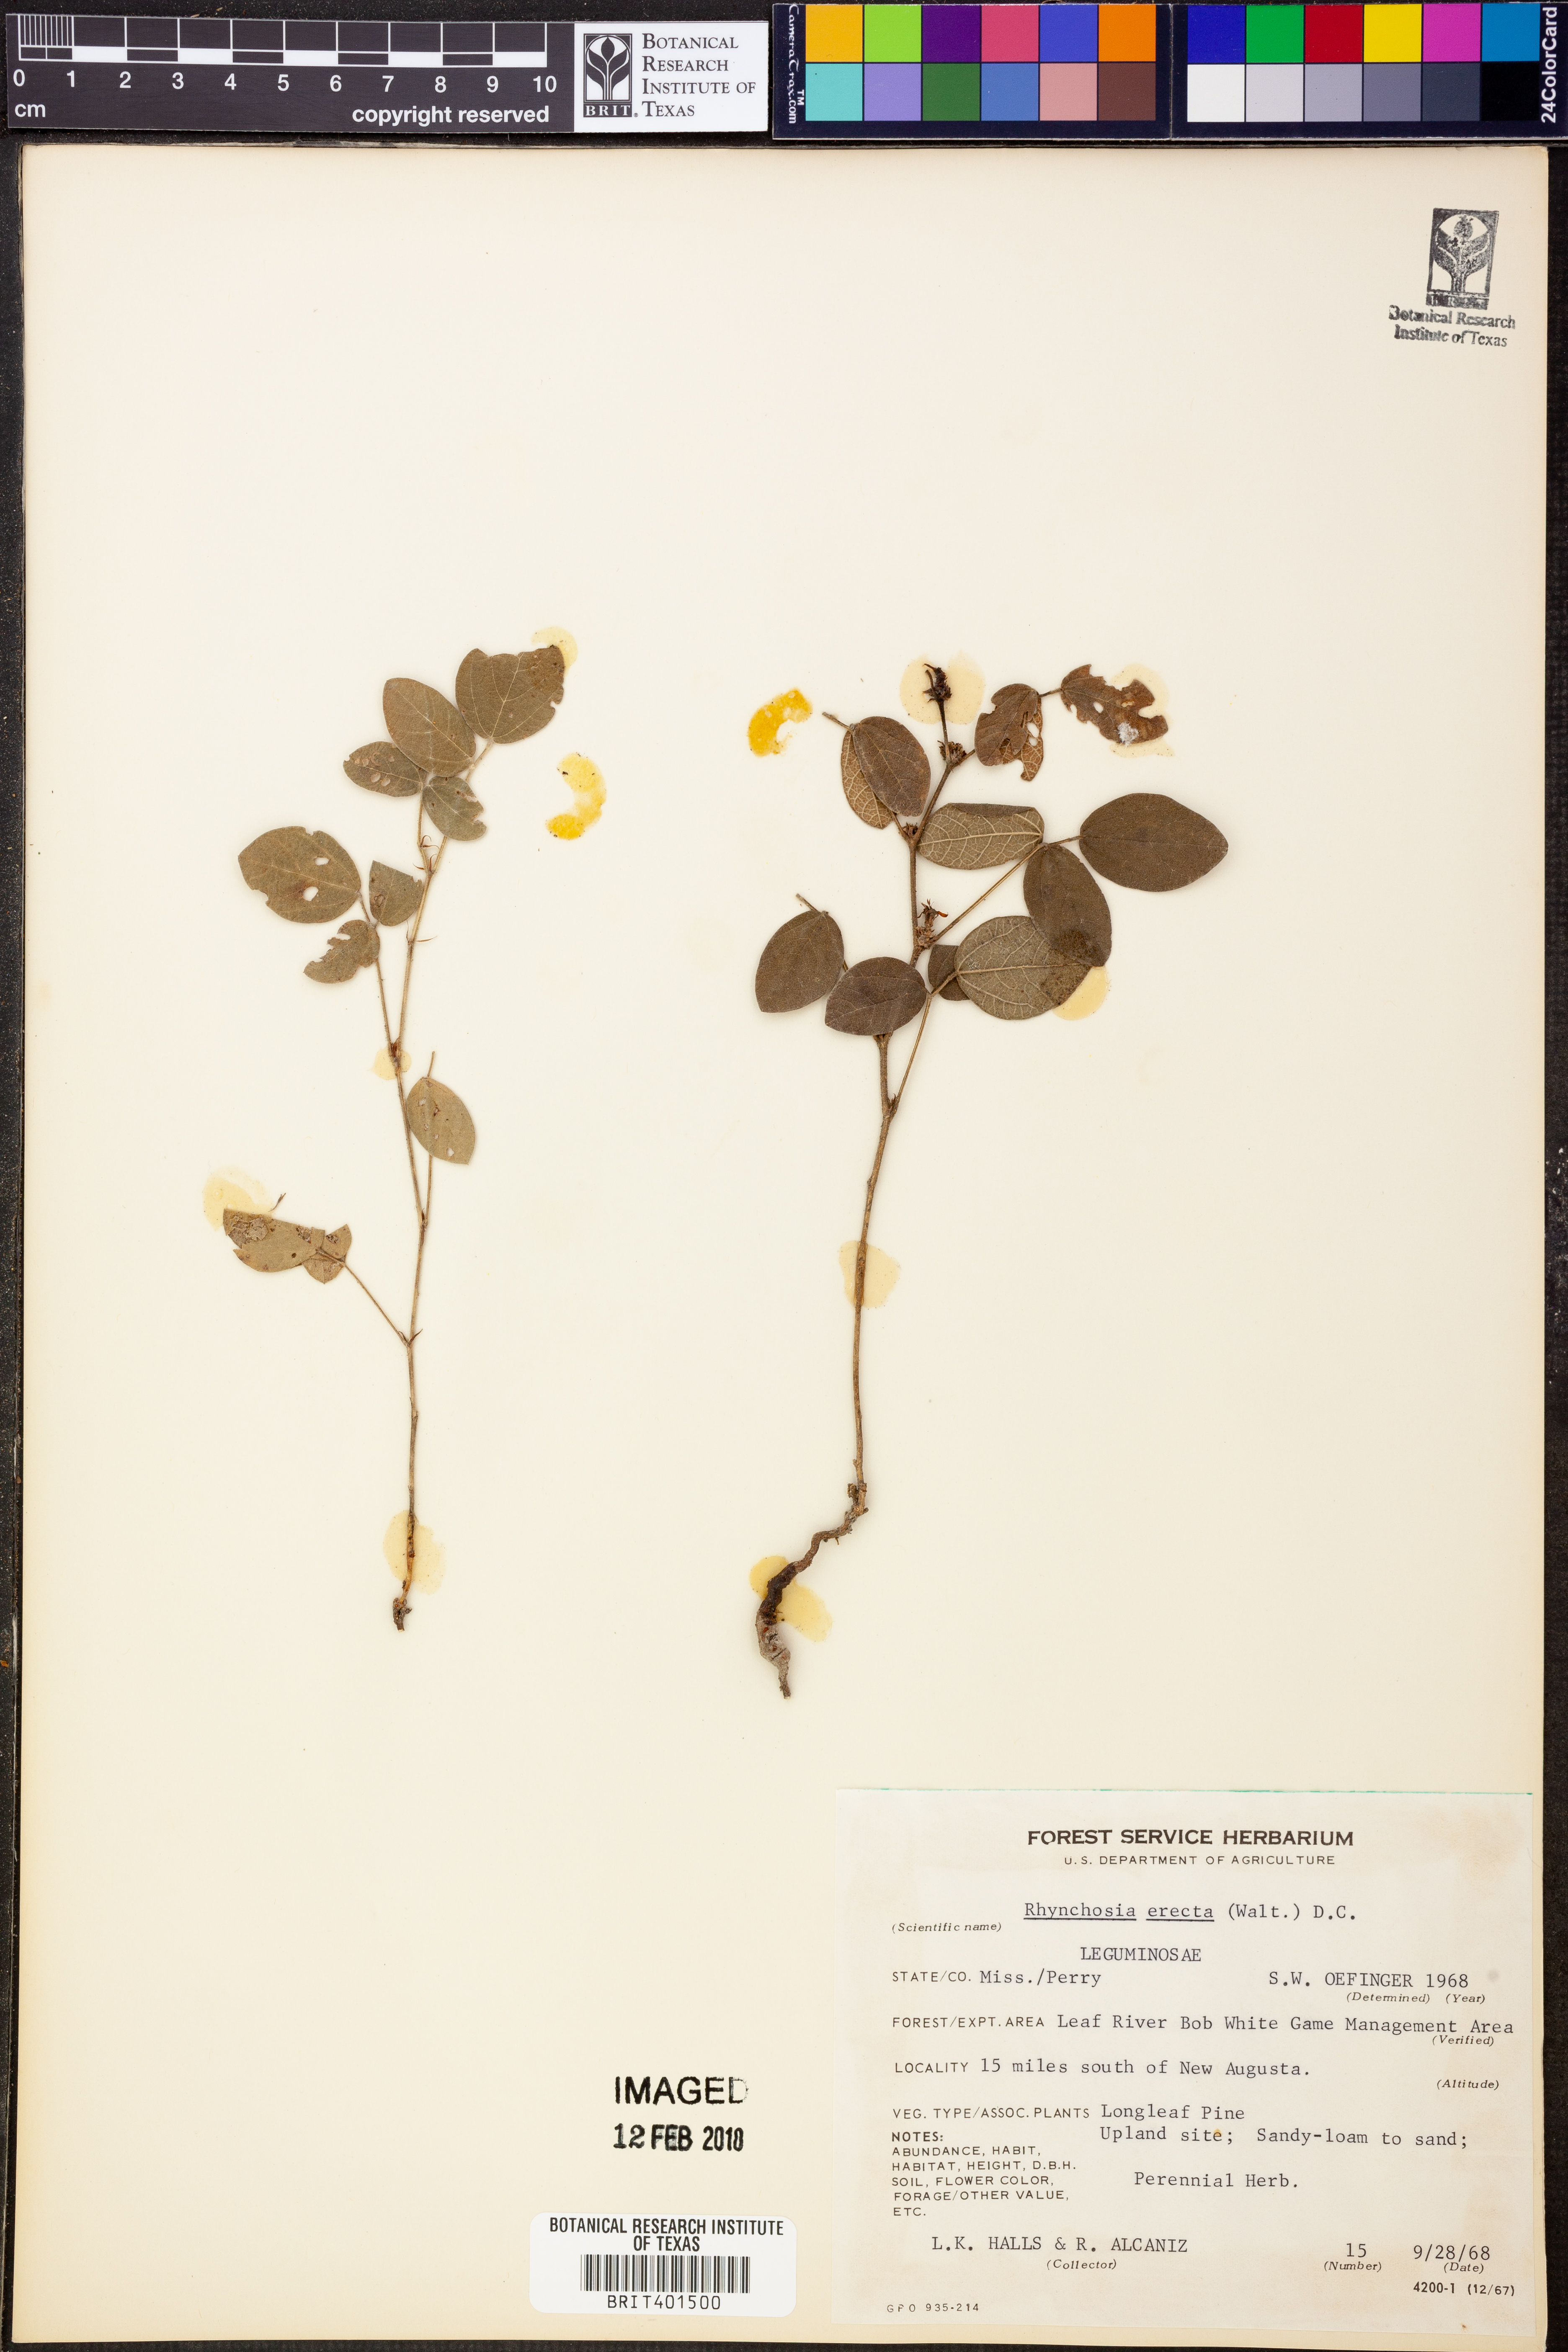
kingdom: Plantae
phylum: Tracheophyta
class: Magnoliopsida
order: Fabales
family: Fabaceae
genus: Rhynchosia
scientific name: Rhynchosia chrysoscias
